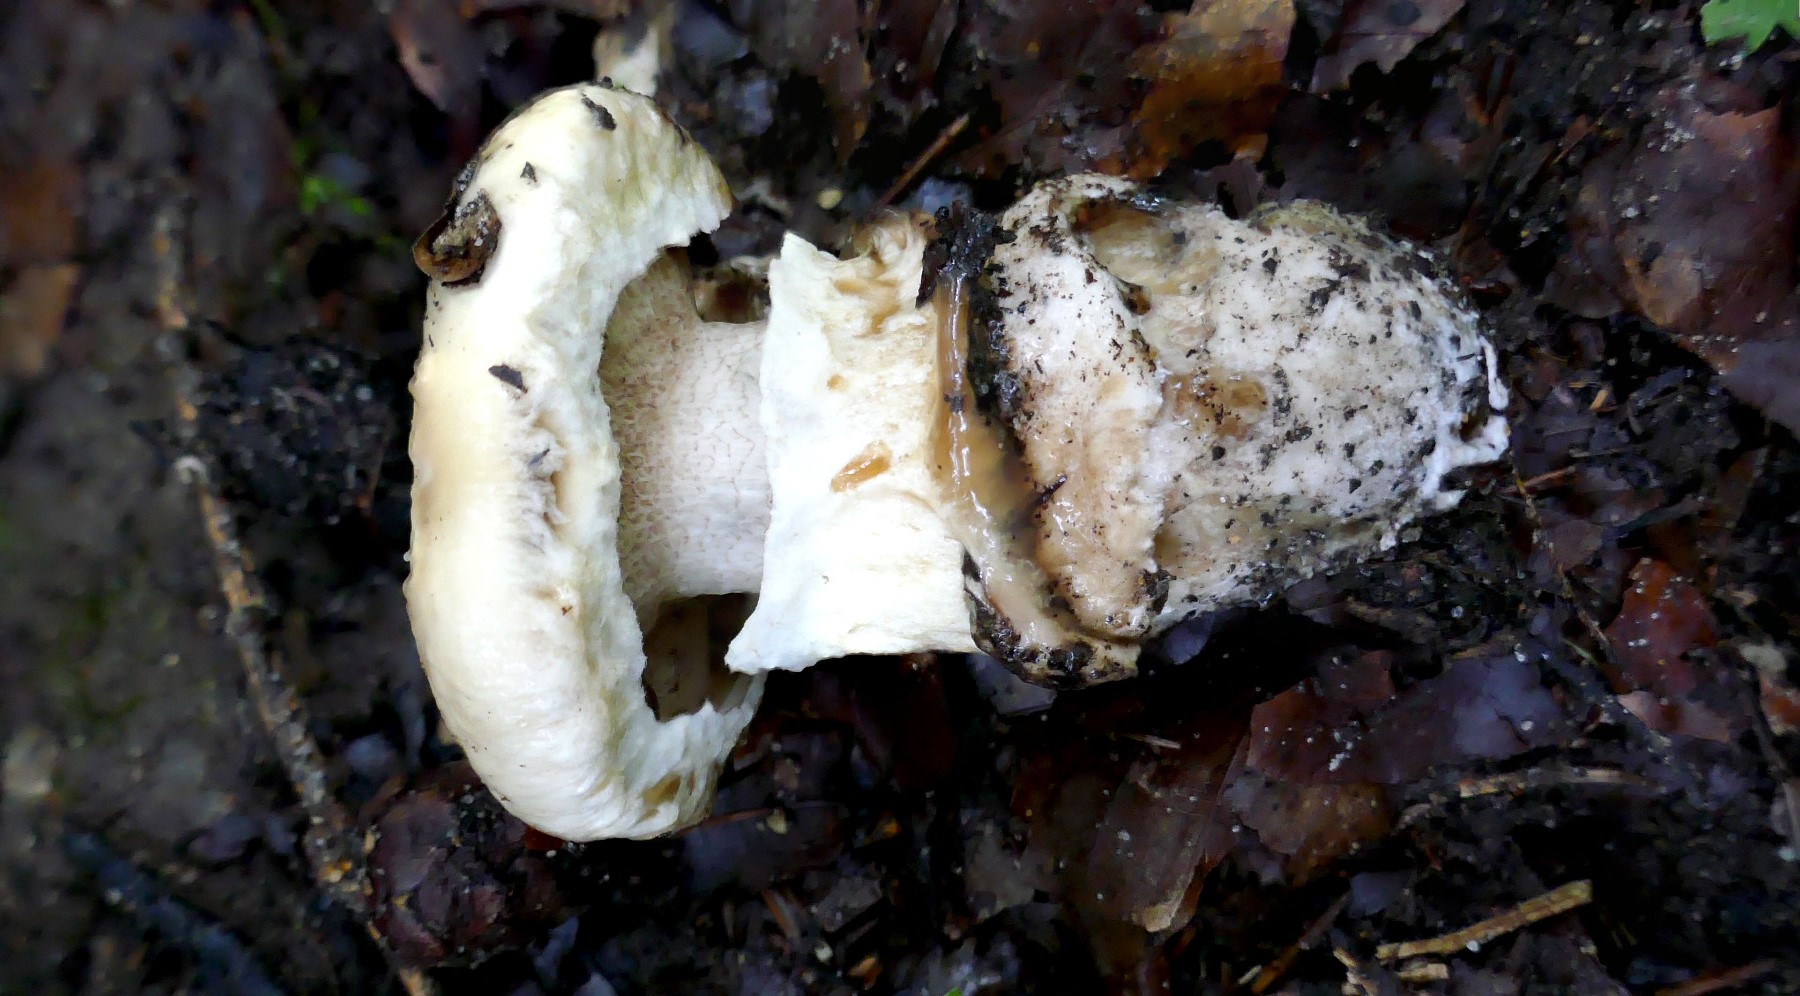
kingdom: Fungi
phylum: Basidiomycota
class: Agaricomycetes
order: Boletales
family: Suillaceae
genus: Suillus
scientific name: Suillus viscidus
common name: olivengrå slimrørhat
